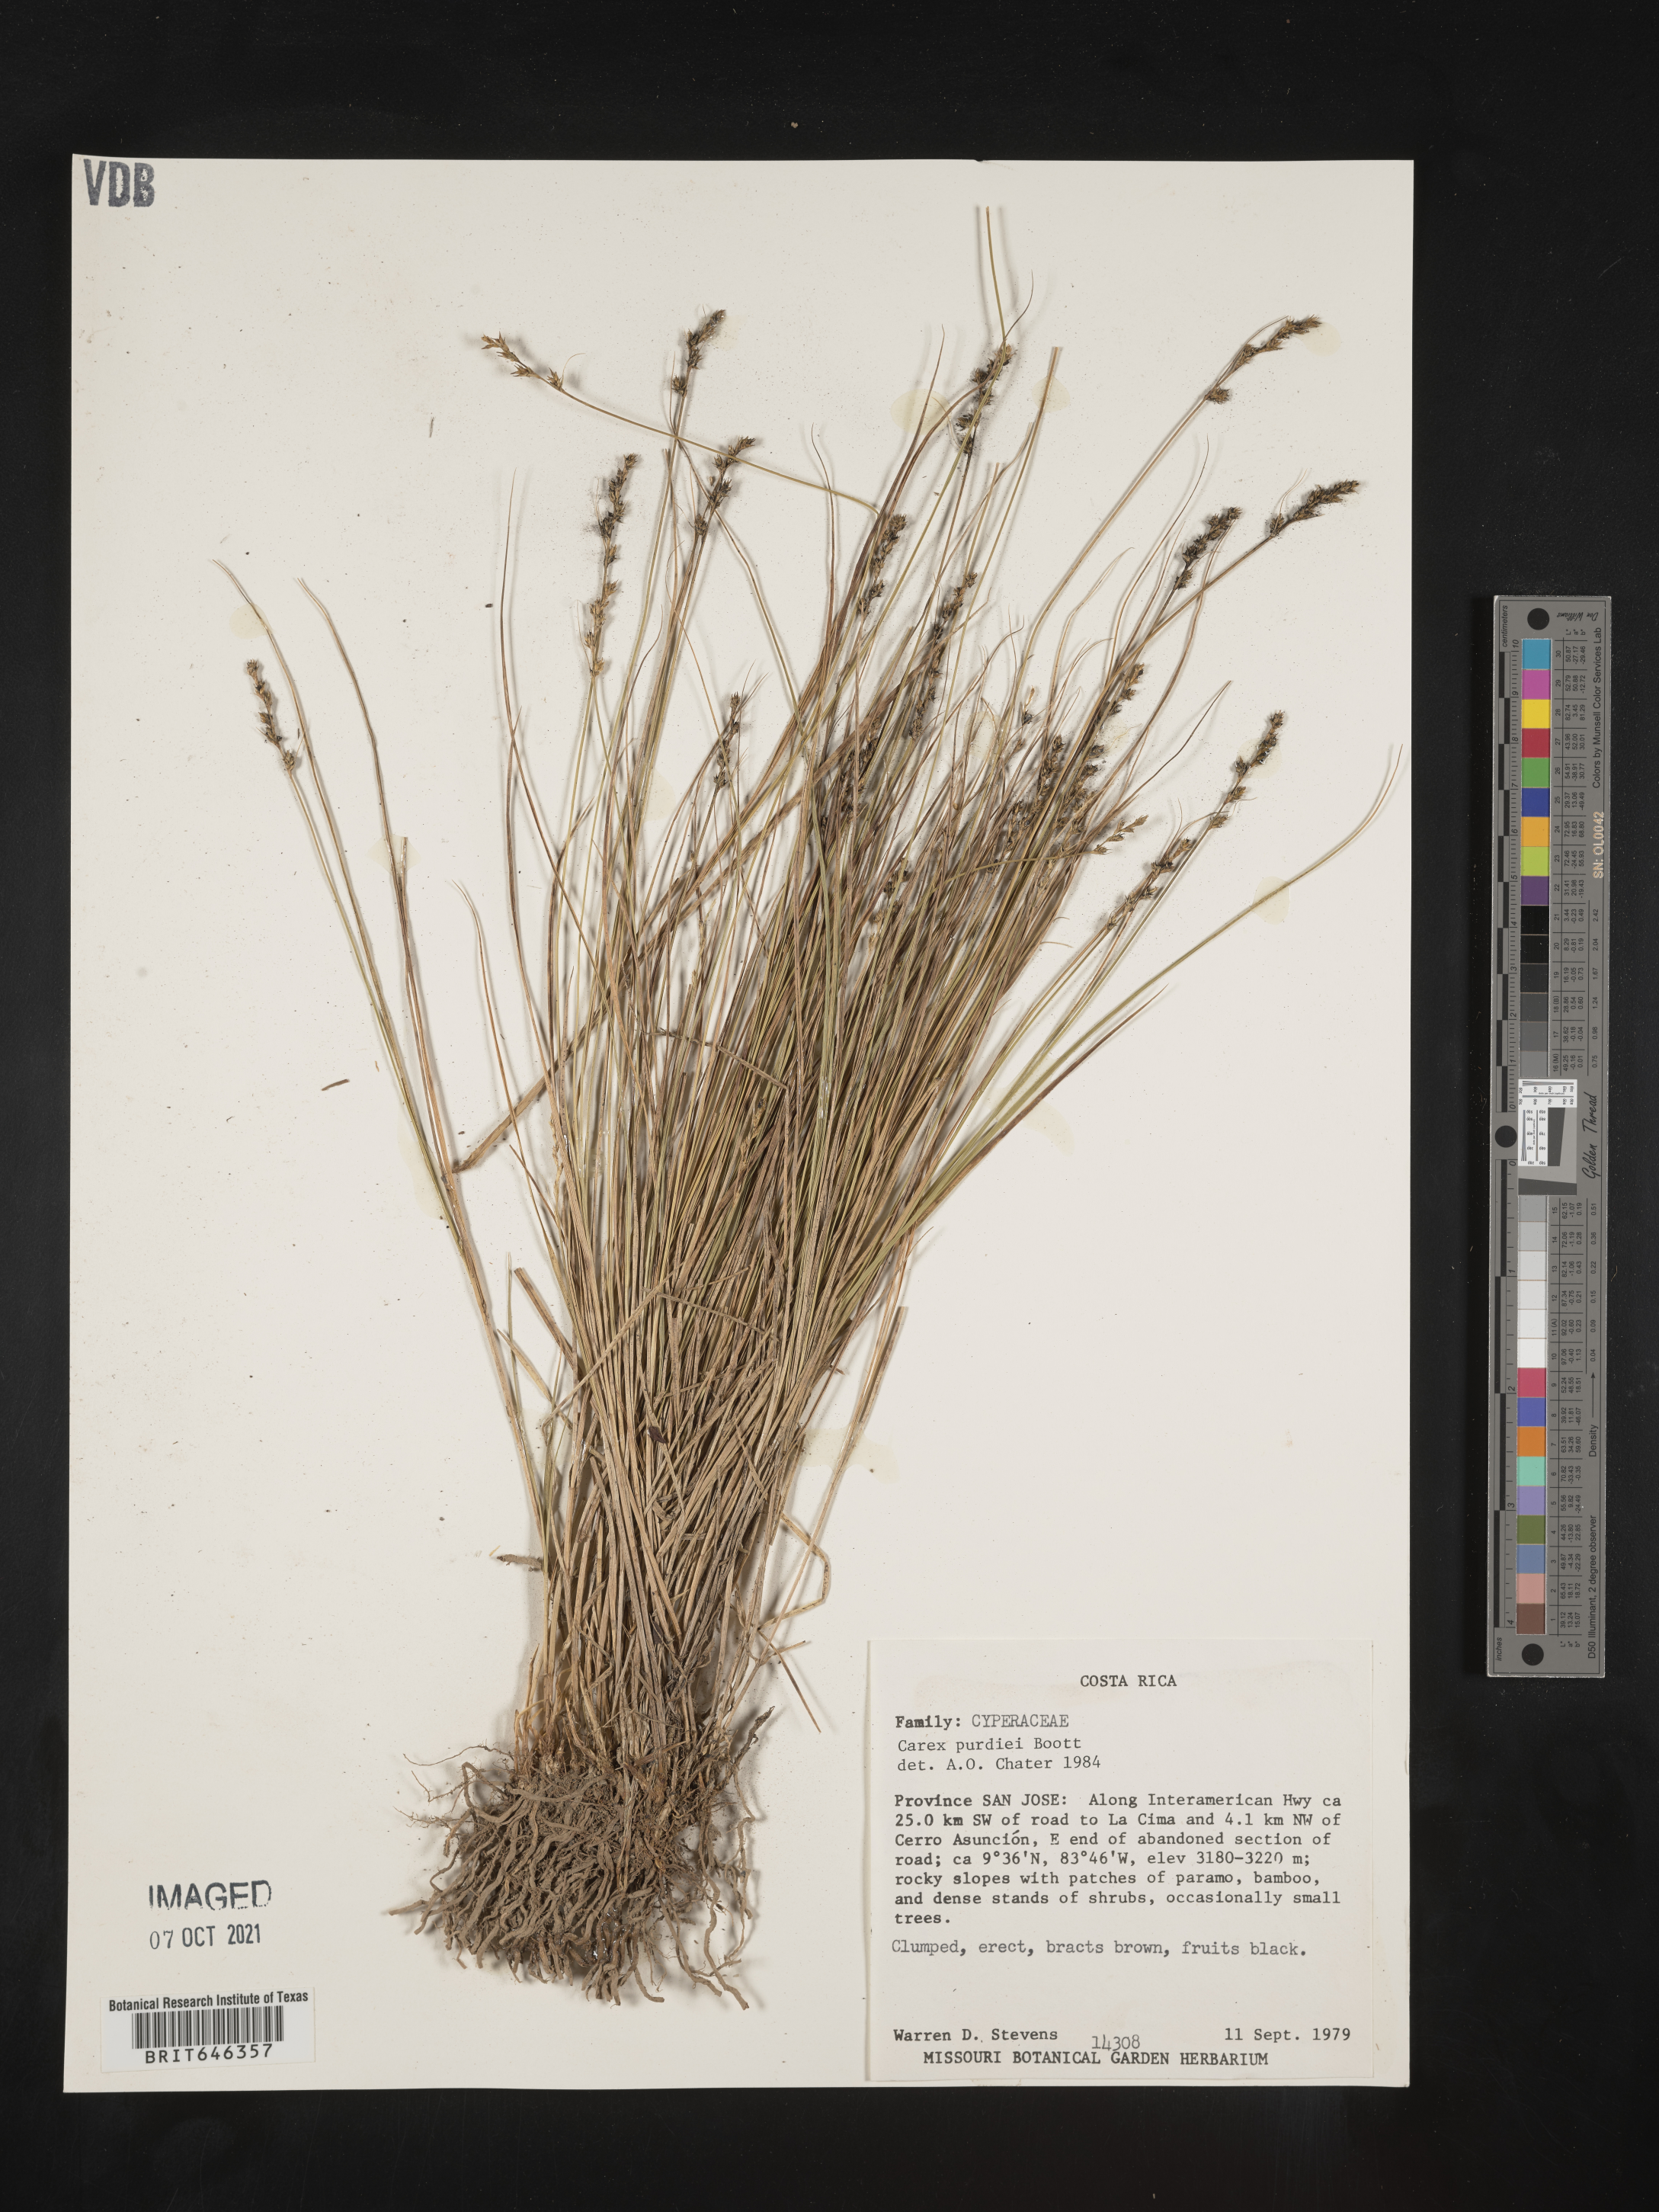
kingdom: Plantae
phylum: Tracheophyta
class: Liliopsida
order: Poales
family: Cyperaceae
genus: Carex
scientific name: Carex purdiei
